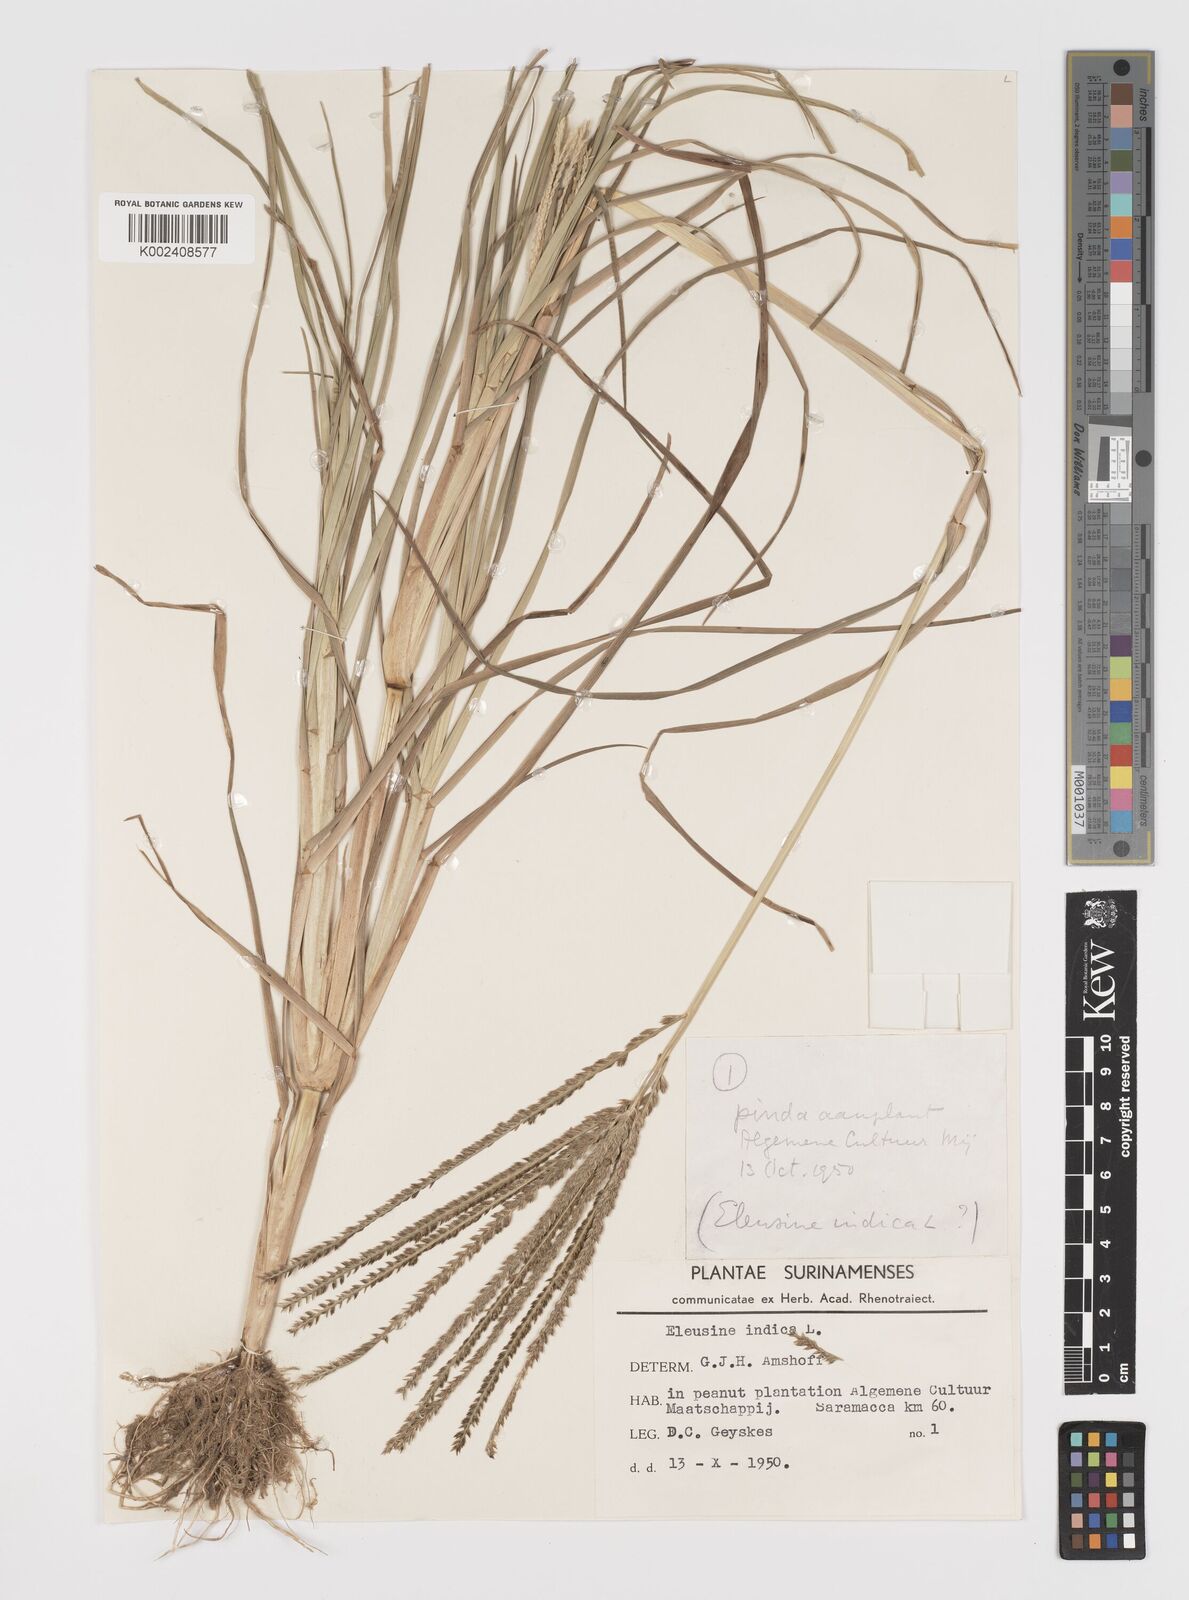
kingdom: Plantae
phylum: Tracheophyta
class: Liliopsida
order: Poales
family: Poaceae
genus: Eleusine
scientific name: Eleusine indica
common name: Yard-grass
